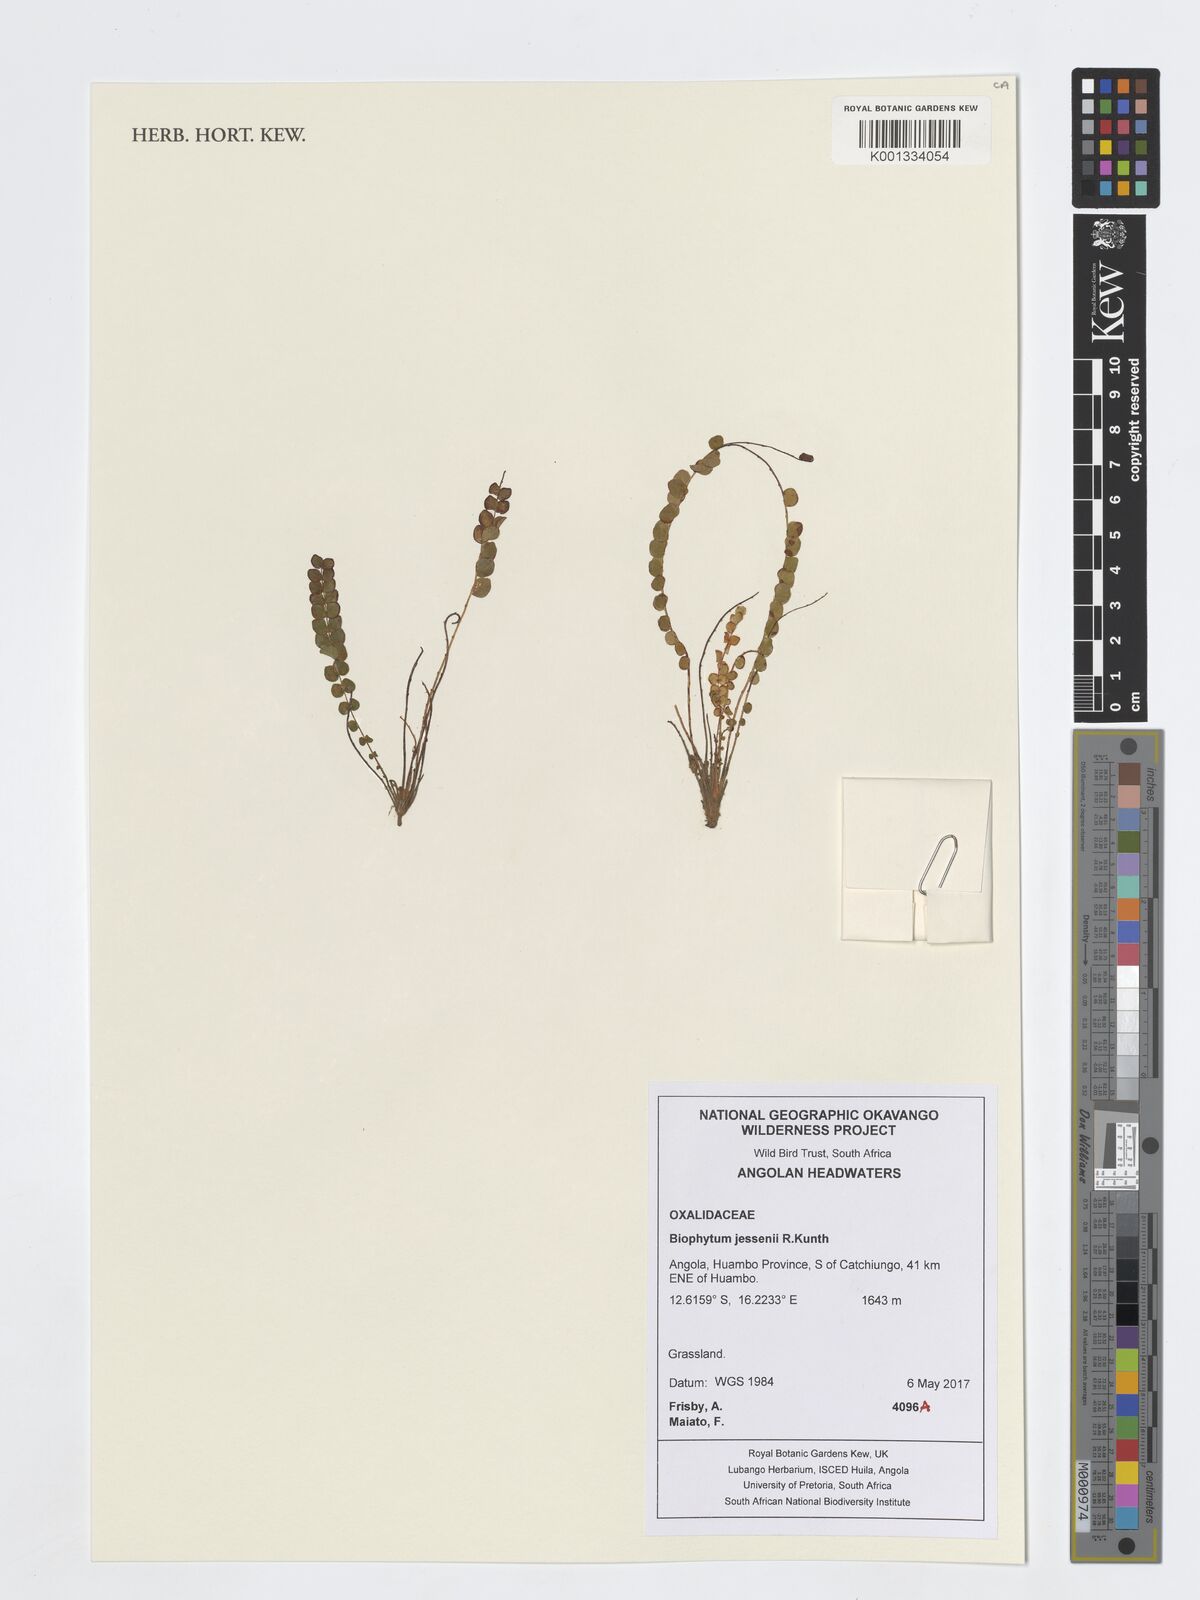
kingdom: Plantae
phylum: Tracheophyta
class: Magnoliopsida
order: Oxalidales
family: Oxalidaceae
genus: Biophytum
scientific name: Biophytum jessenii
